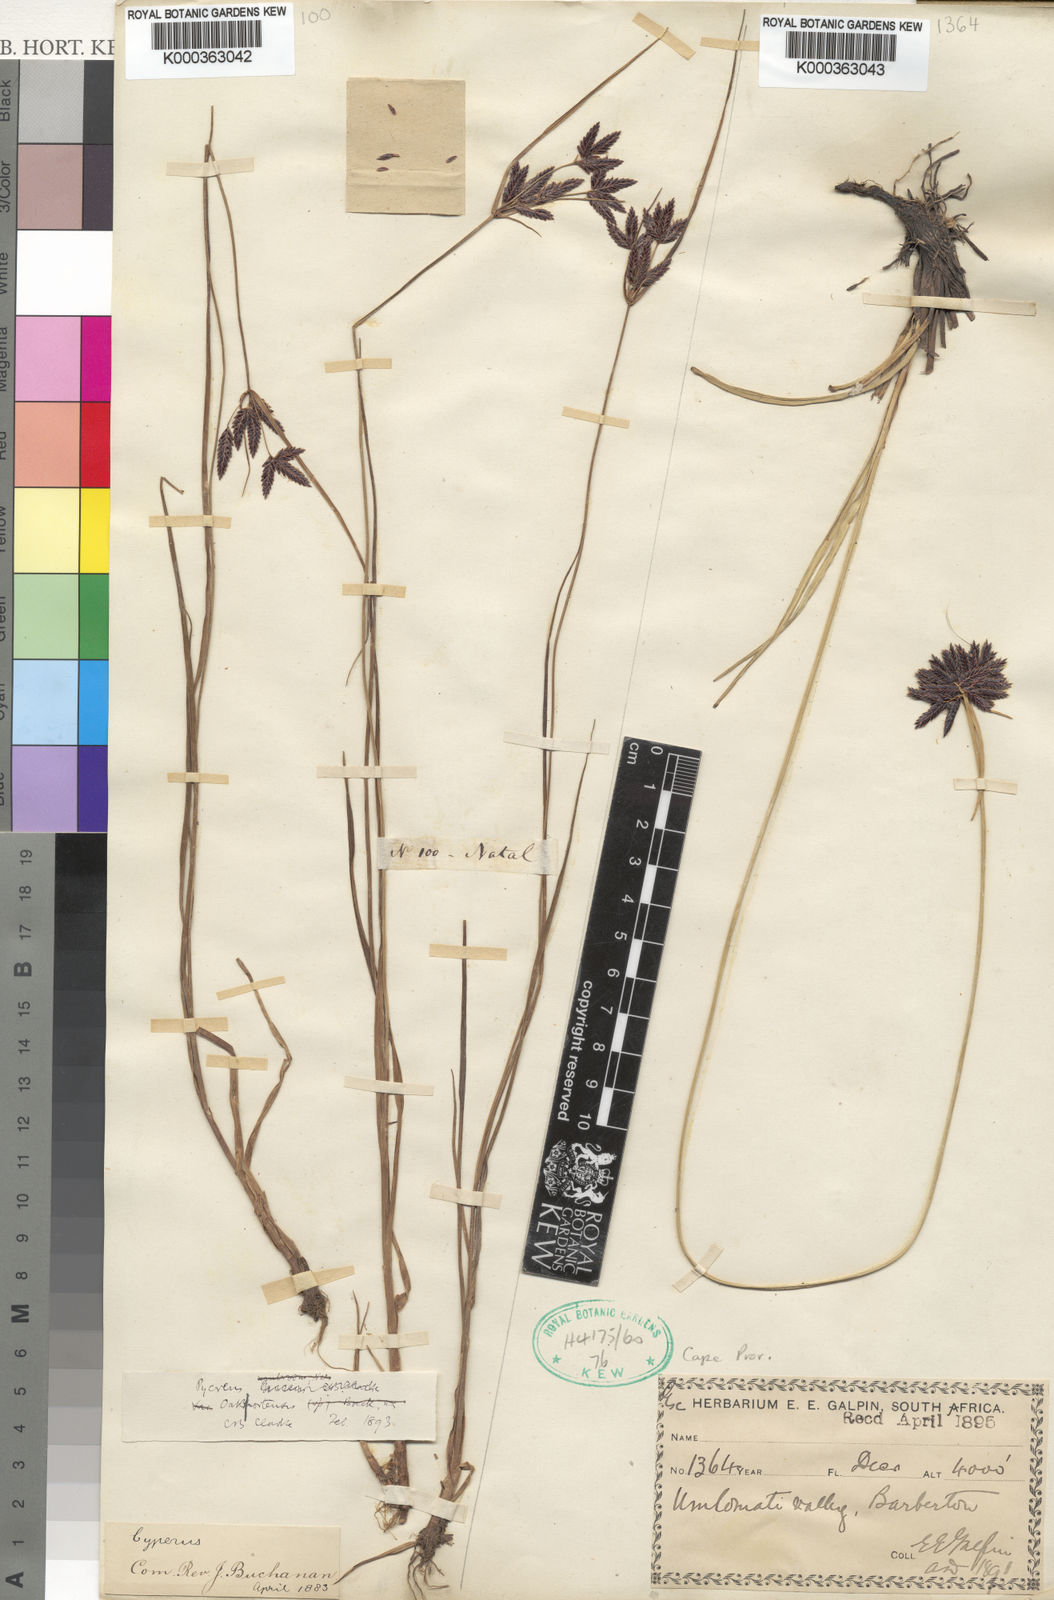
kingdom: Plantae
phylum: Tracheophyta
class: Liliopsida
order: Poales
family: Cyperaceae
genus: Cyperus
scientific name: Cyperus oakfortensis
